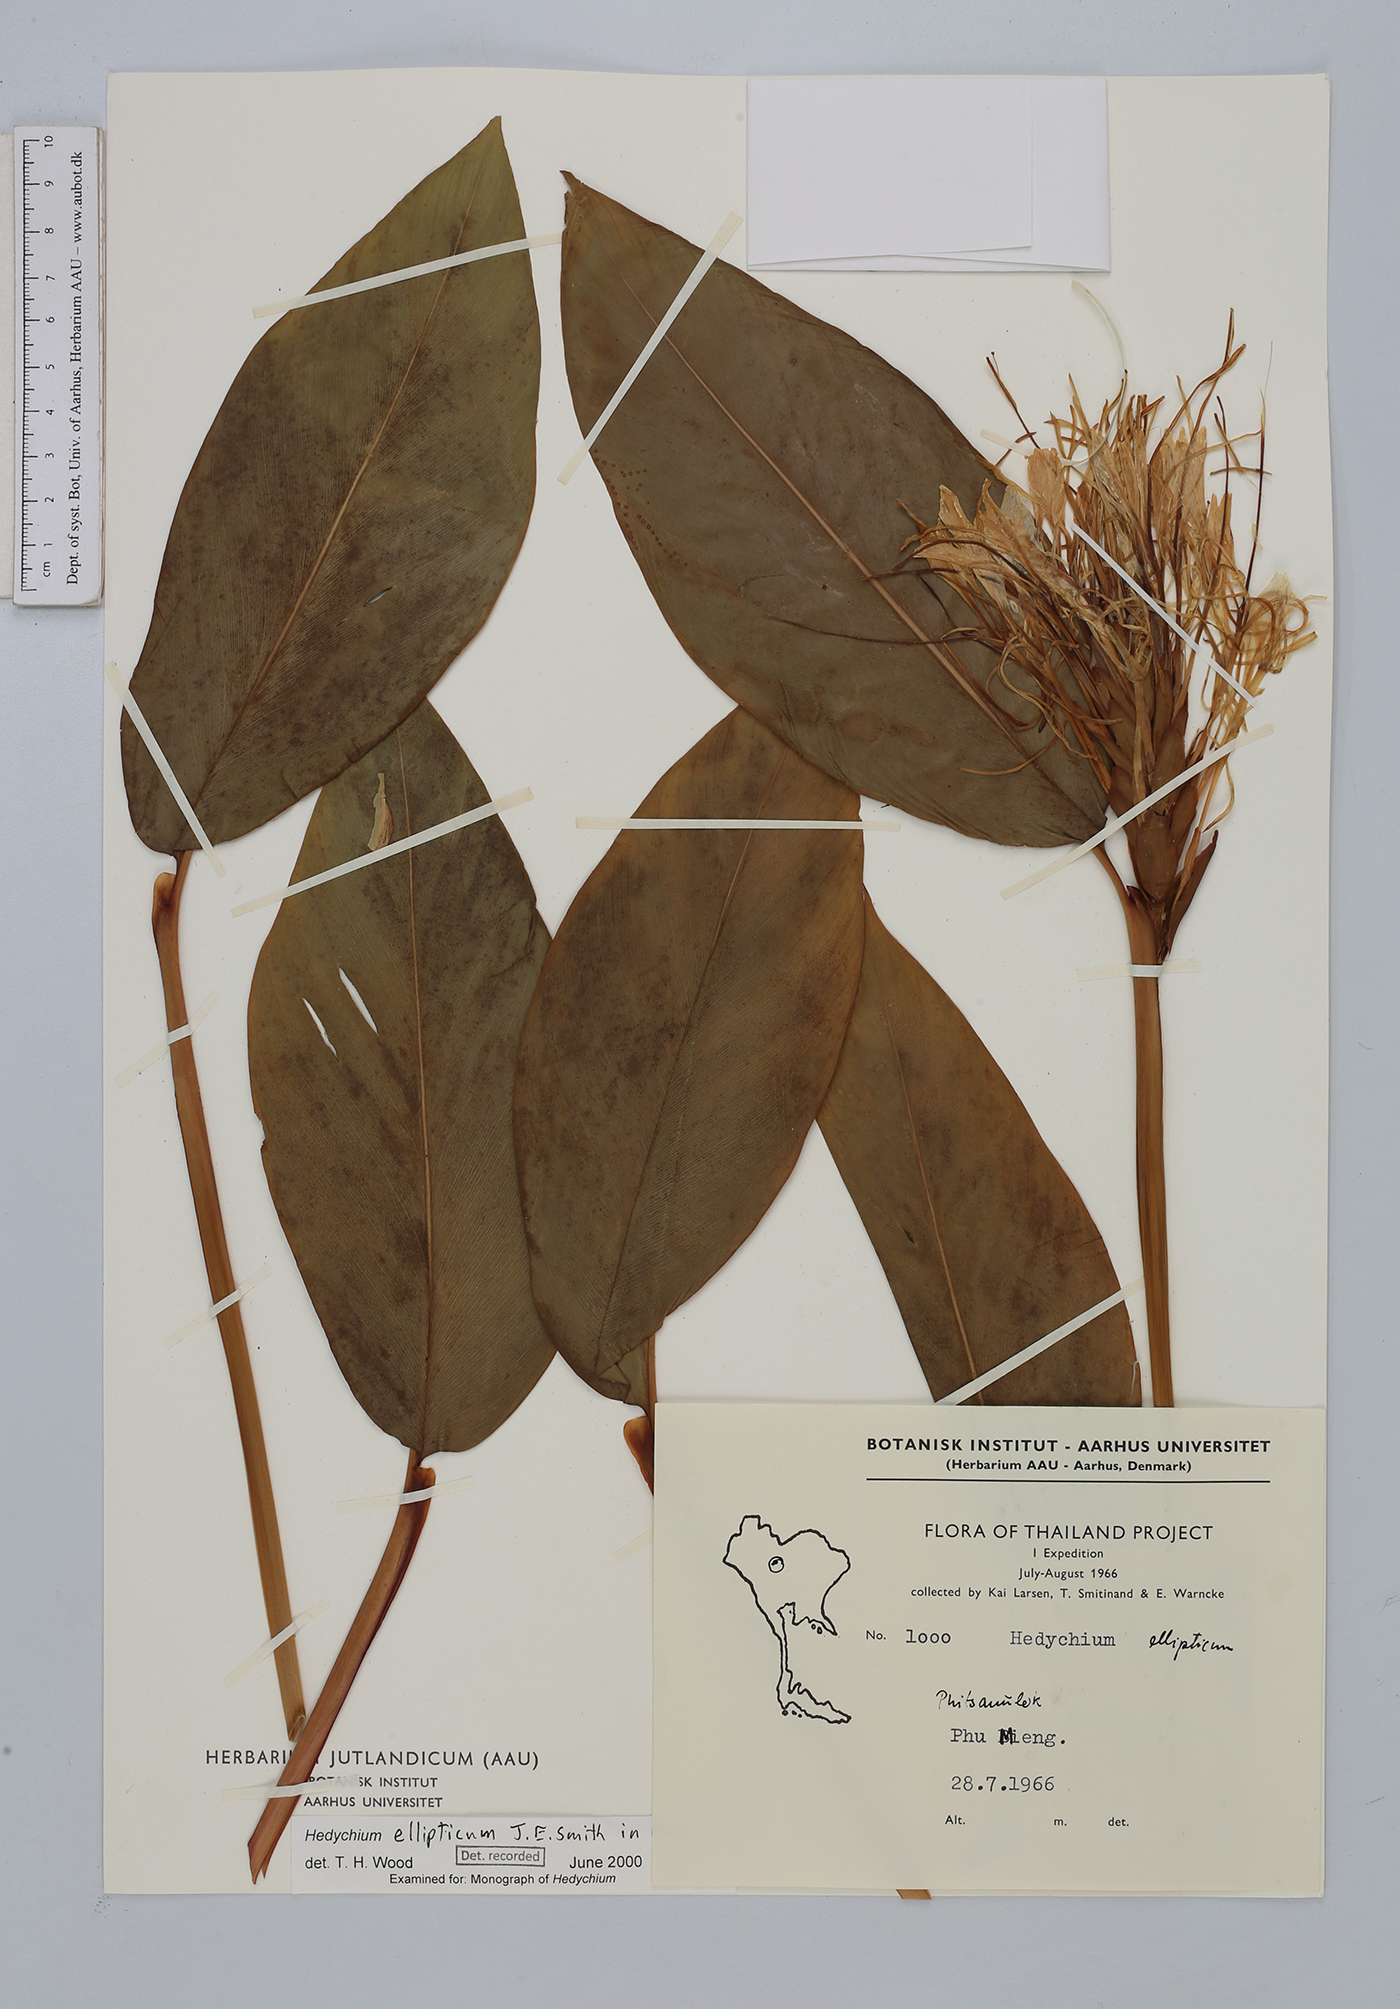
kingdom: Plantae
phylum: Tracheophyta
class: Liliopsida
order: Zingiberales
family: Zingiberaceae
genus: Hedychium
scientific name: Hedychium
